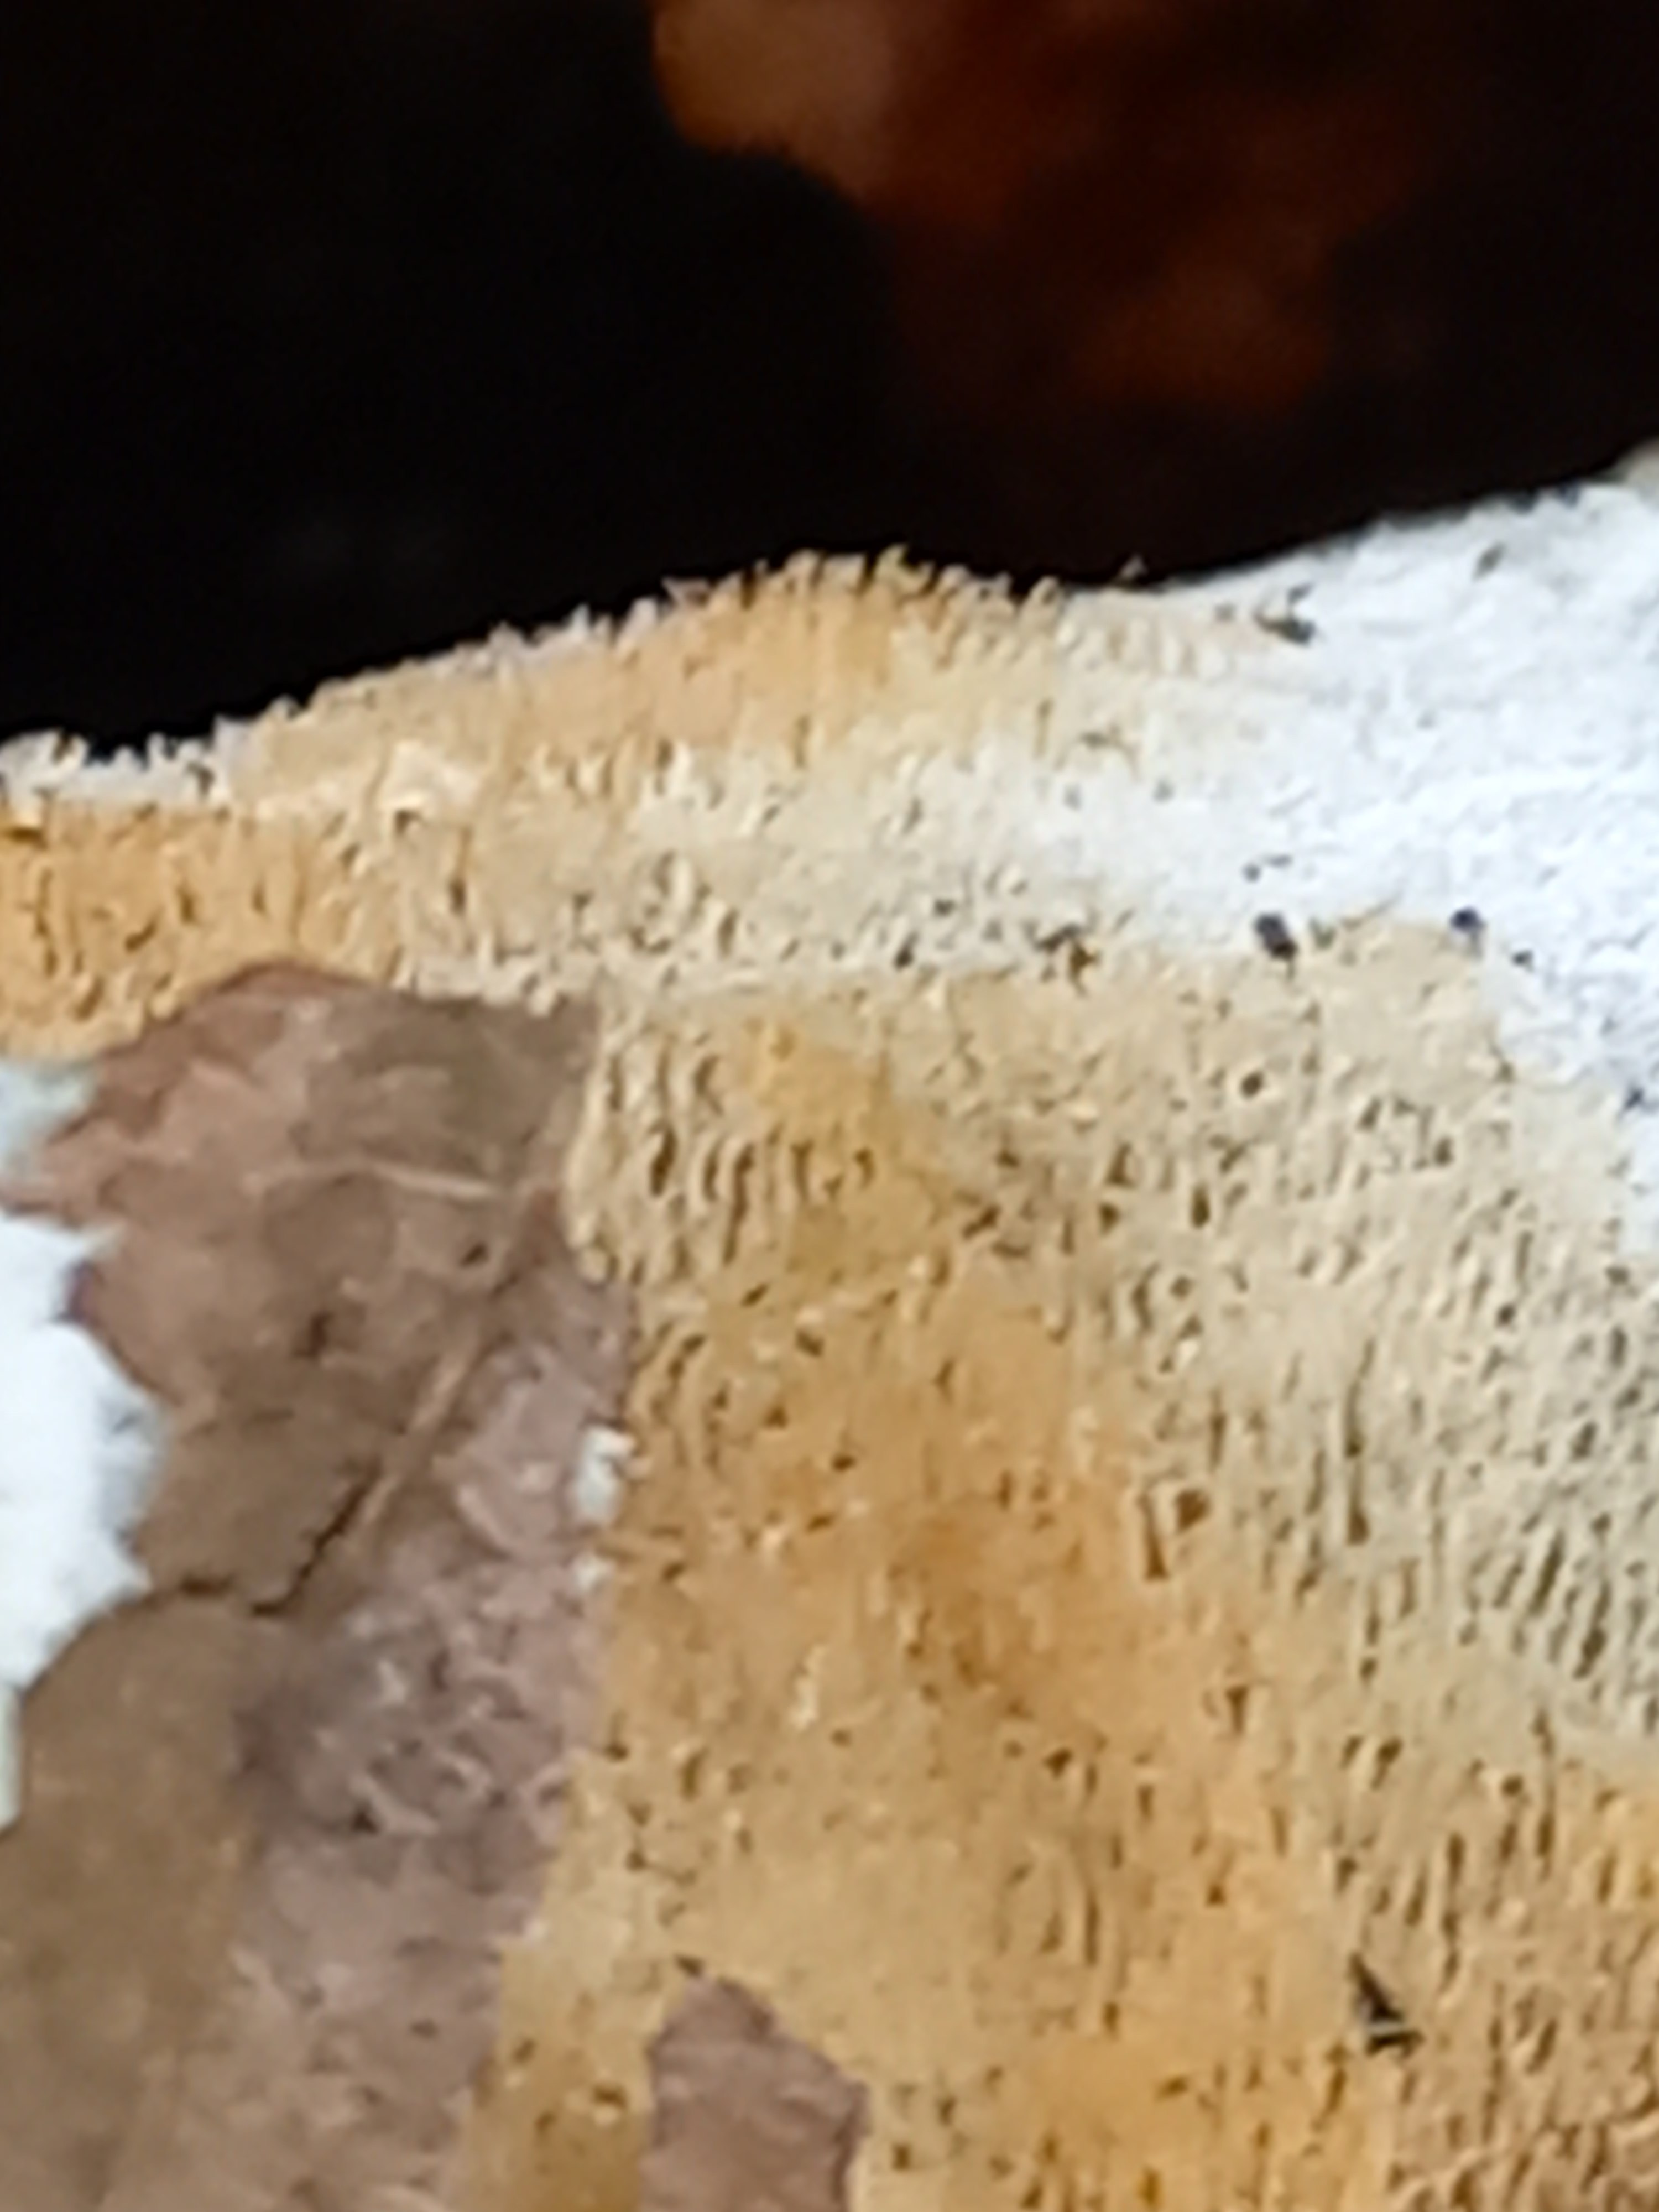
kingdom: Fungi
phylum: Basidiomycota
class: Agaricomycetes
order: Polyporales
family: Steccherinaceae
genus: Steccherinum
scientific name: Steccherinum ochraceum
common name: almindelig skønpig
